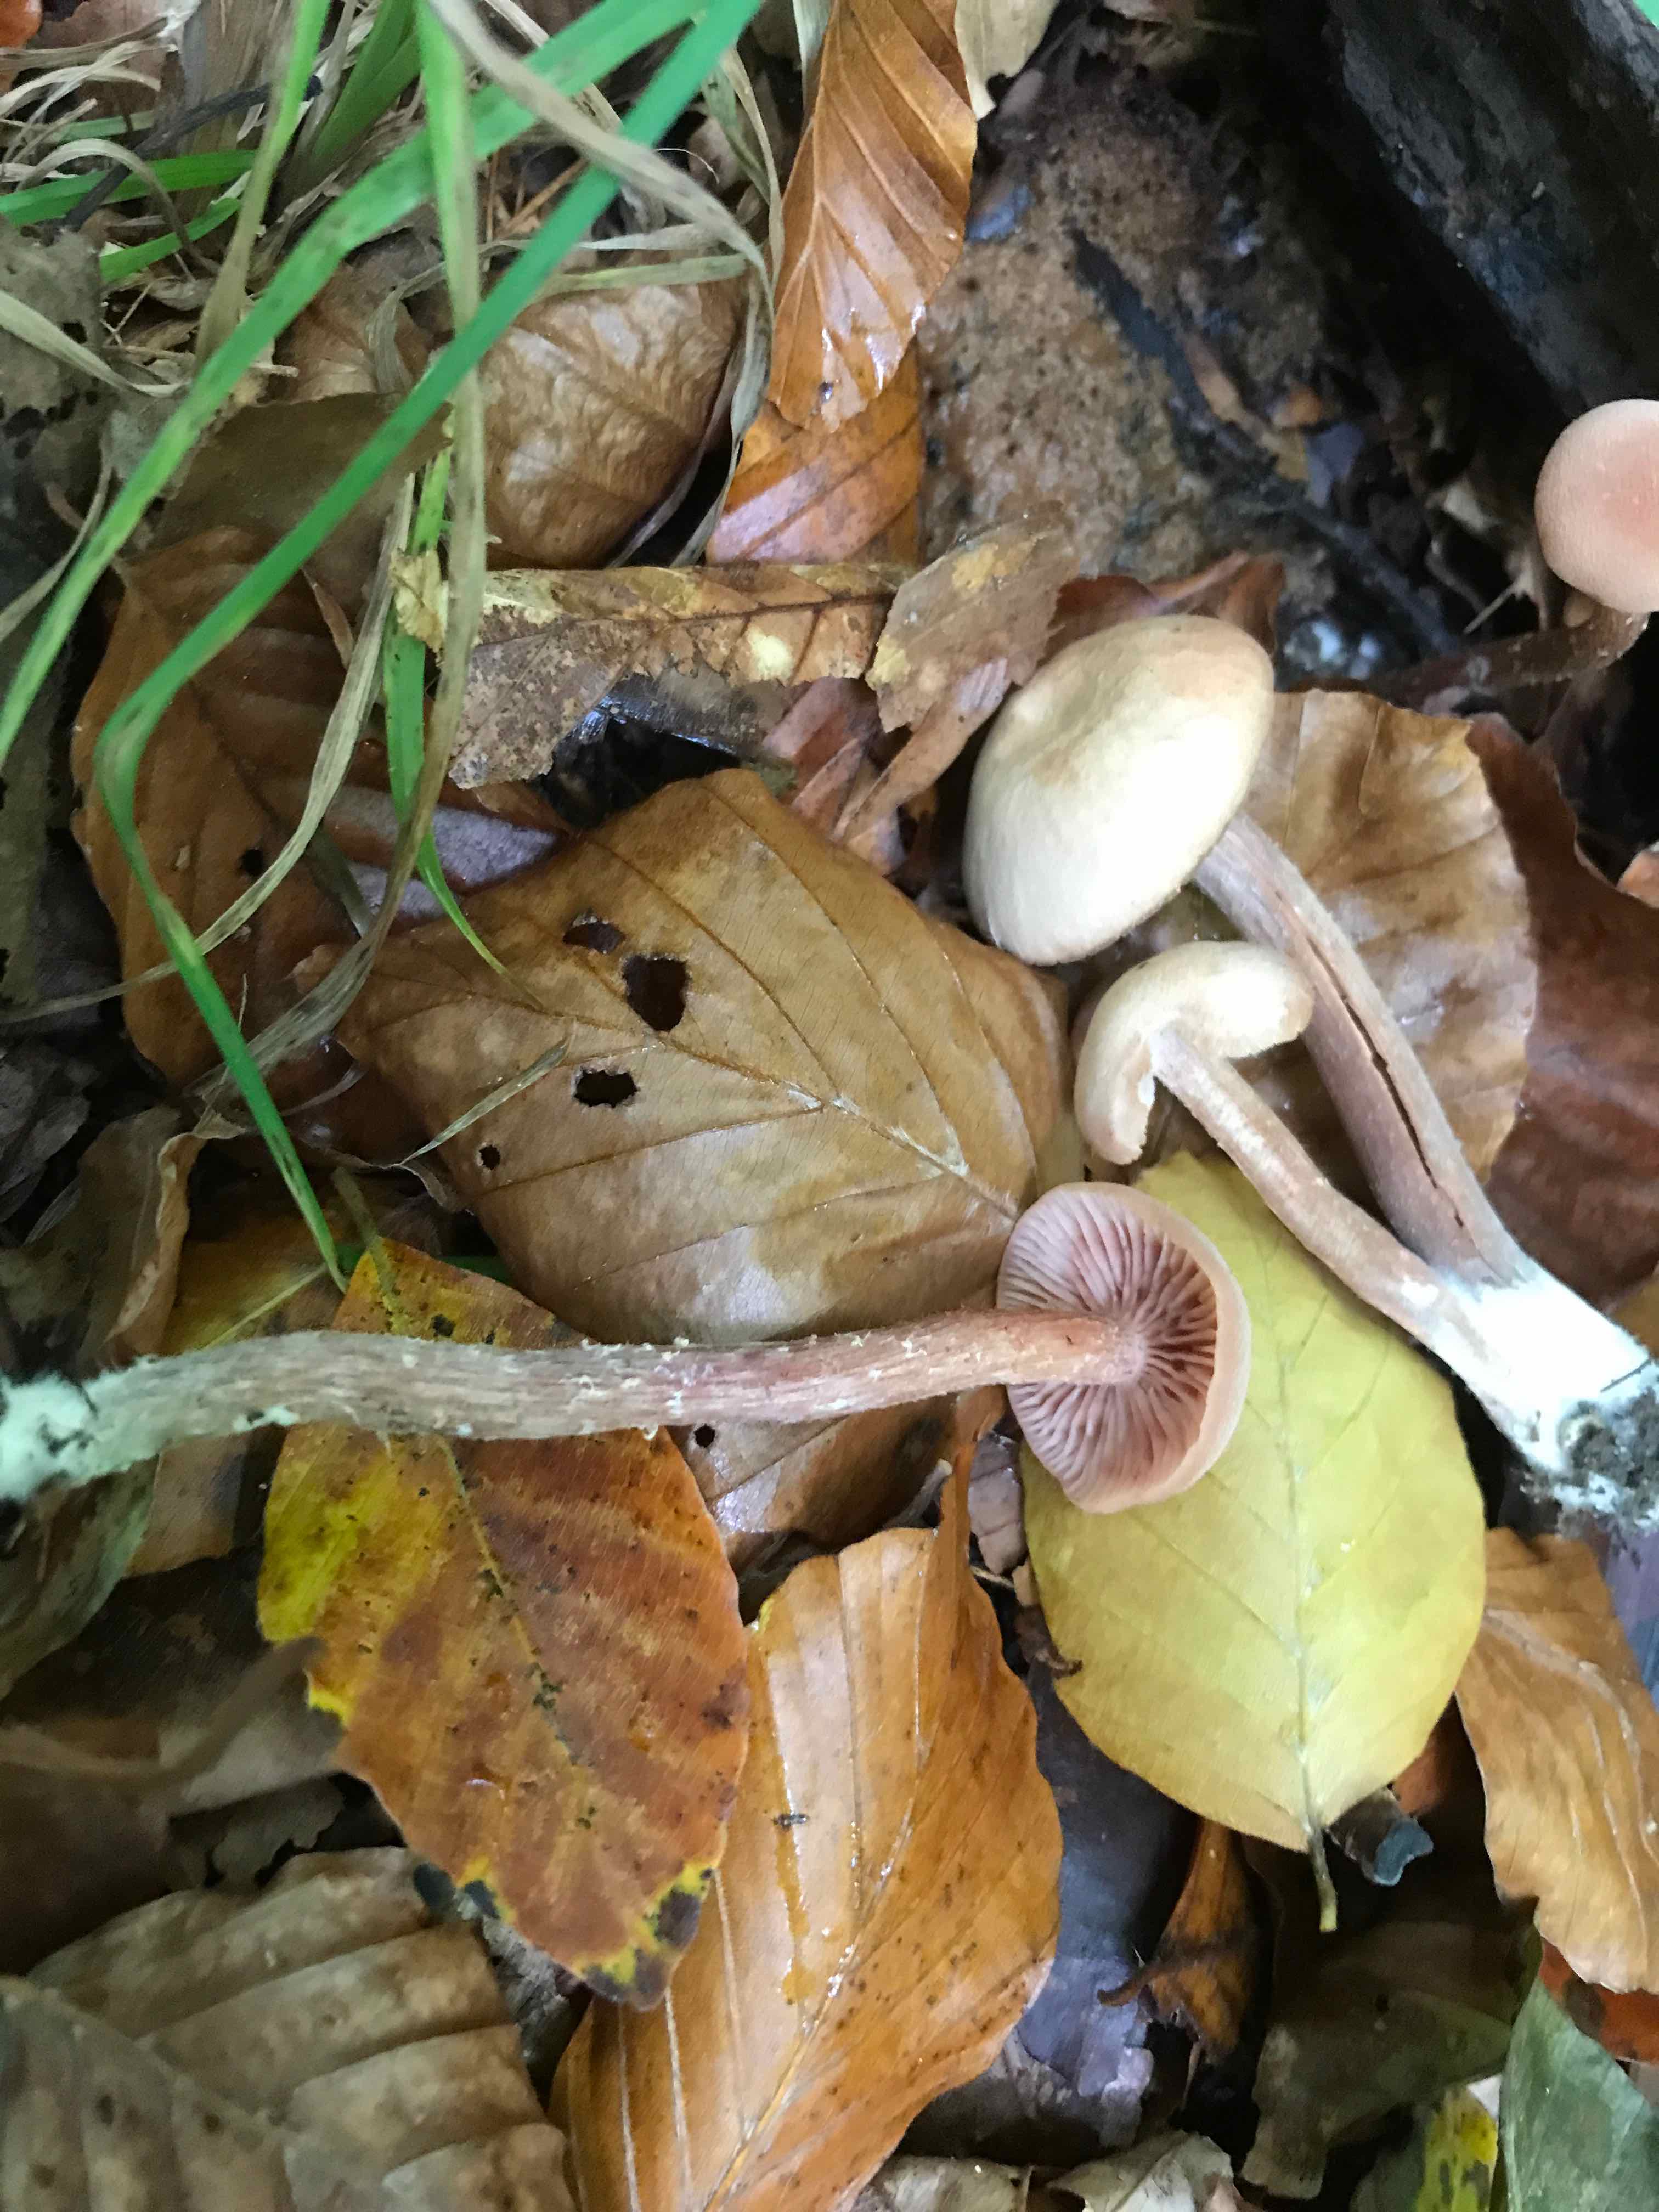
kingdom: Fungi
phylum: Basidiomycota
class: Agaricomycetes
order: Agaricales
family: Hydnangiaceae
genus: Laccaria
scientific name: Laccaria laccata
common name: rød ametysthat
